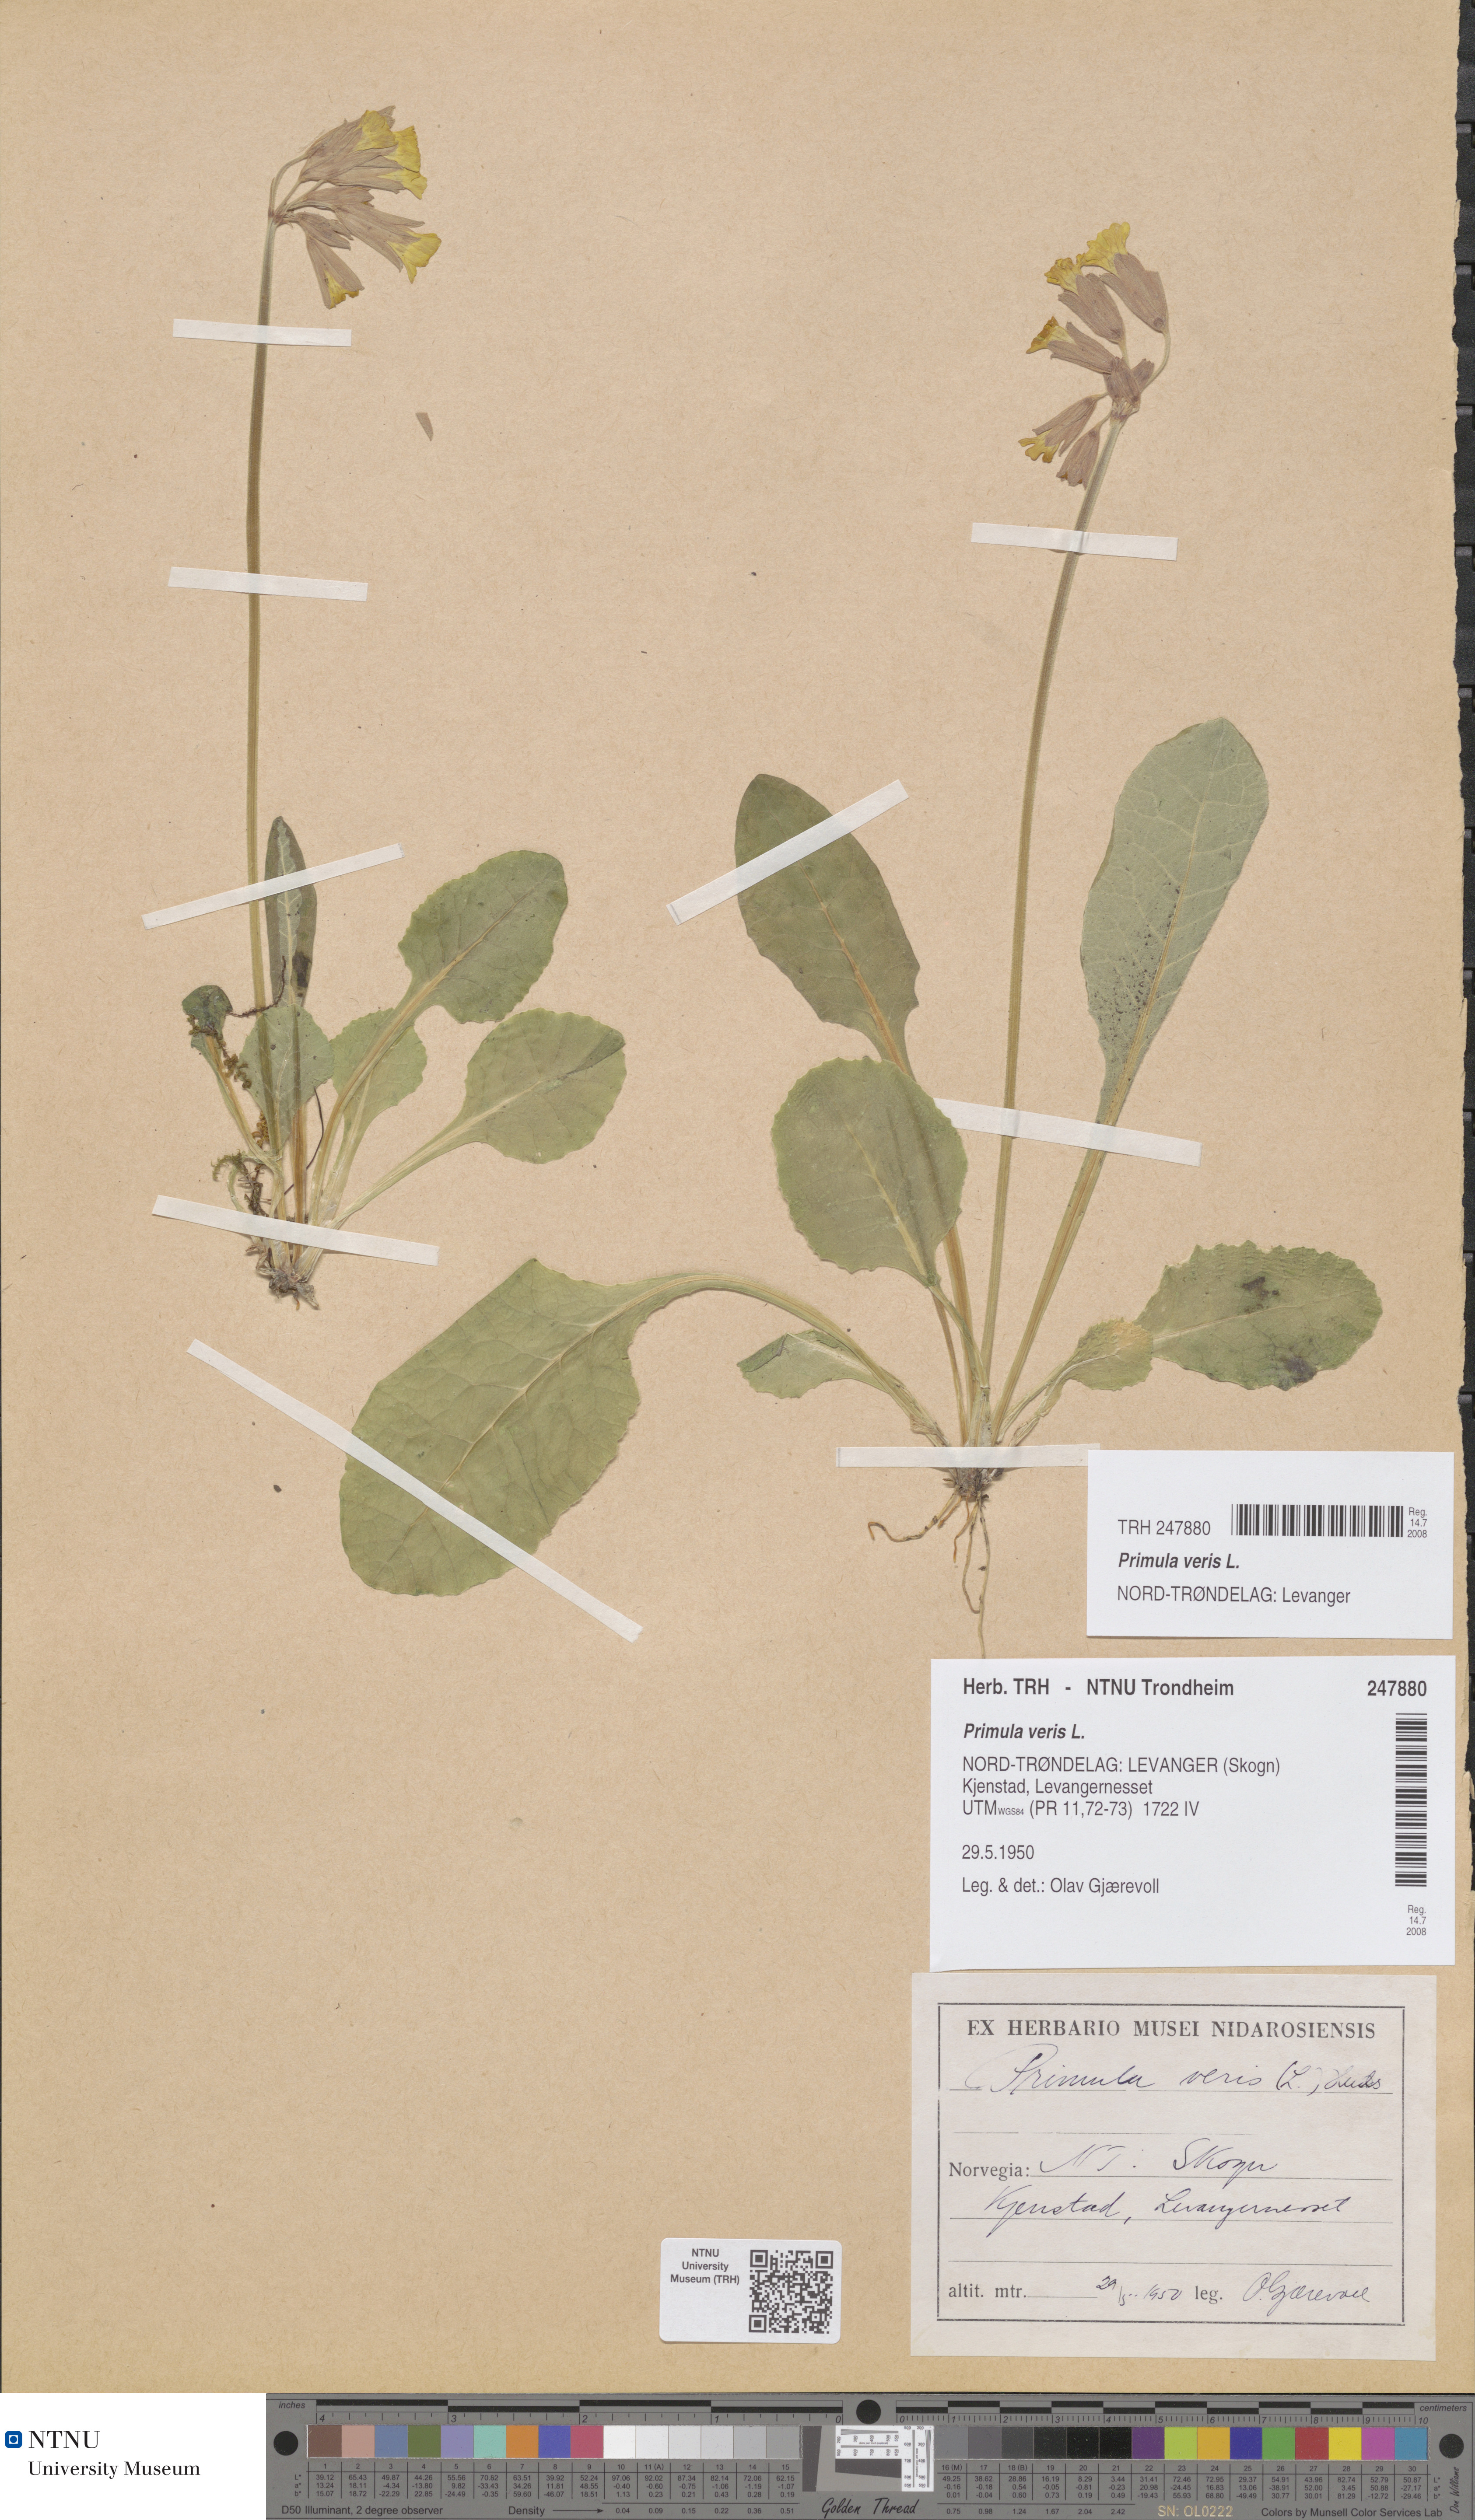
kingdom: Plantae
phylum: Tracheophyta
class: Magnoliopsida
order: Ericales
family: Primulaceae
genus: Primula
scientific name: Primula veris
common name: Cowslip
